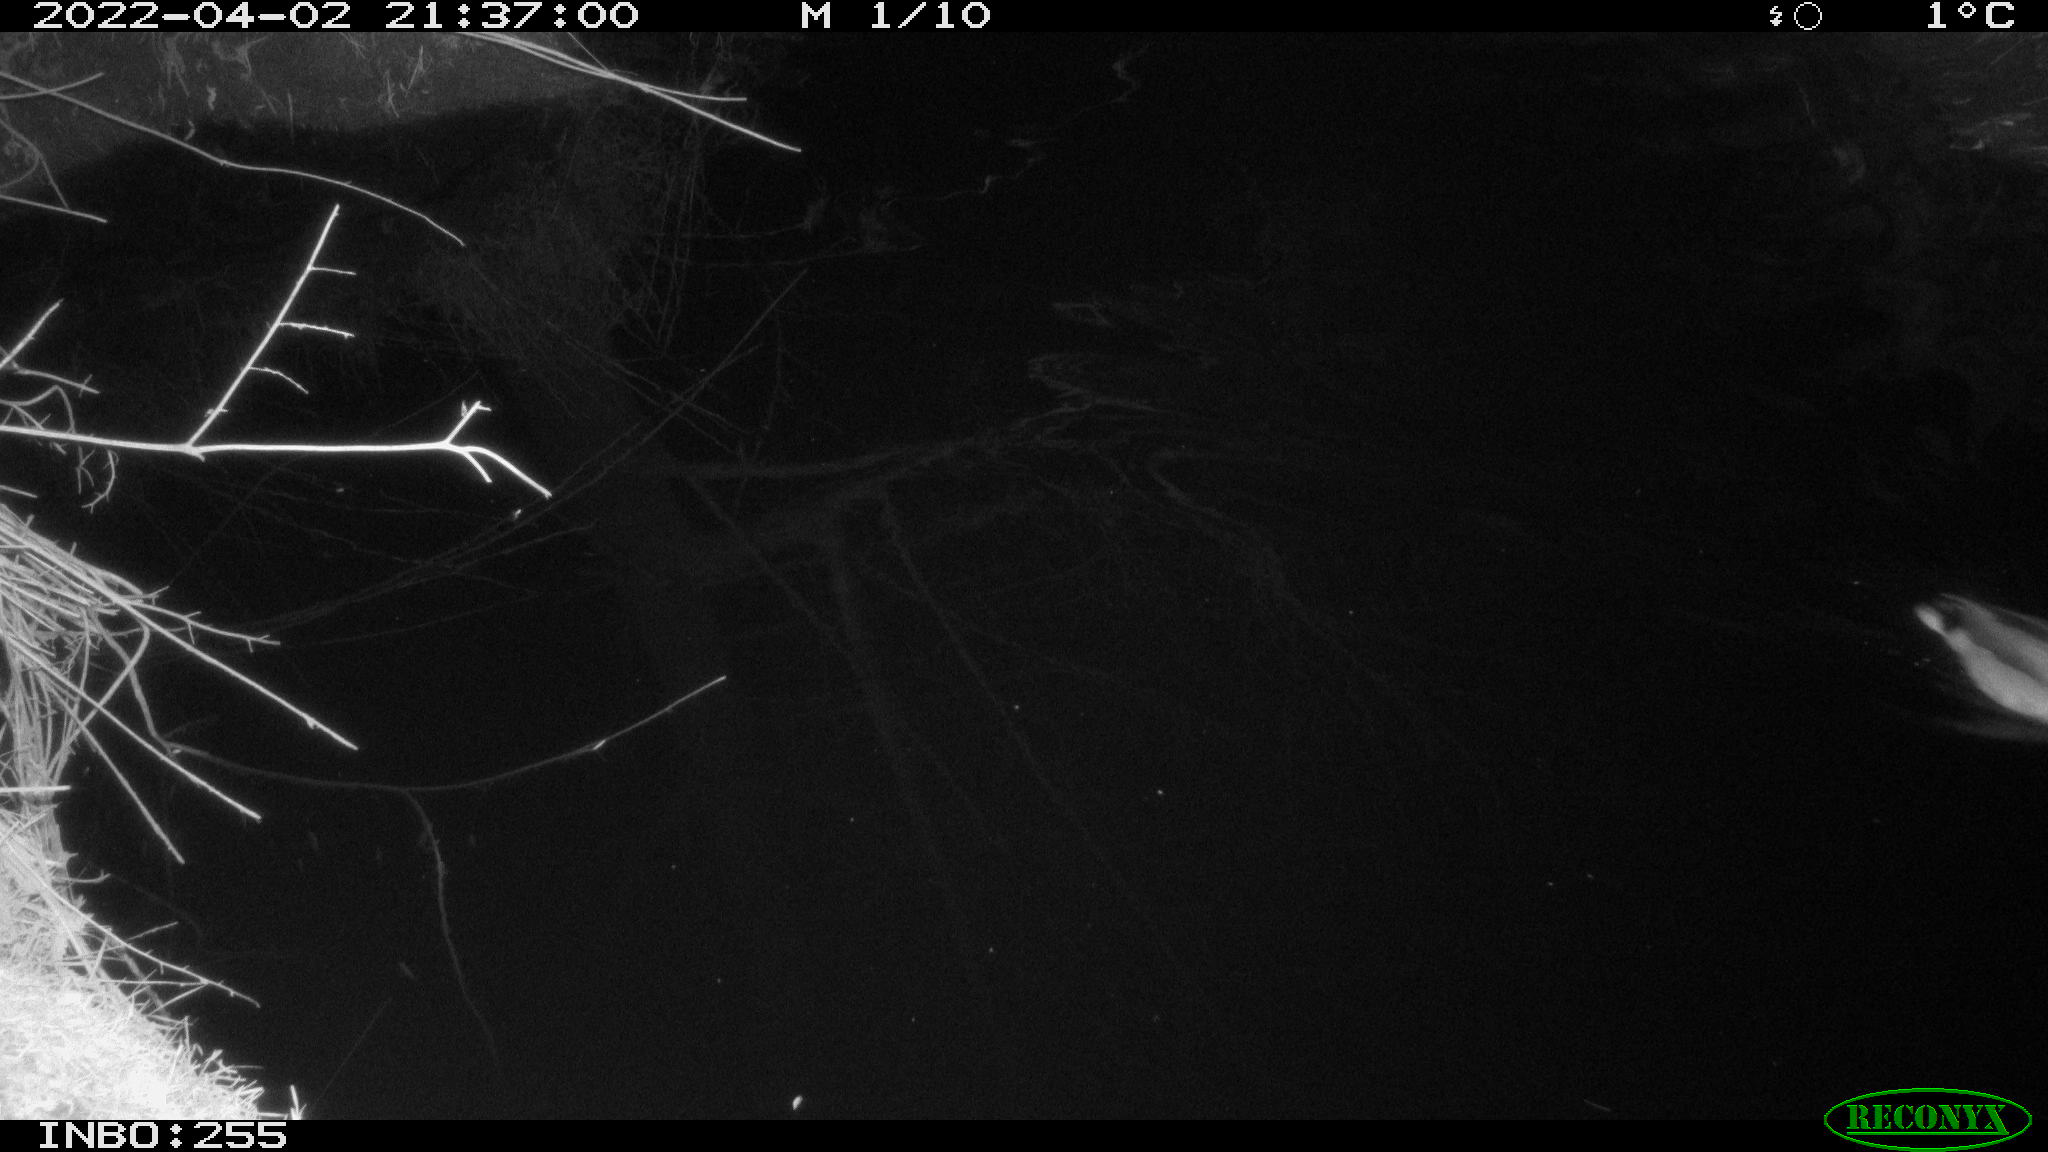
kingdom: Animalia
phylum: Chordata
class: Aves
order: Anseriformes
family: Anatidae
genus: Anas
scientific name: Anas platyrhynchos
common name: Mallard
